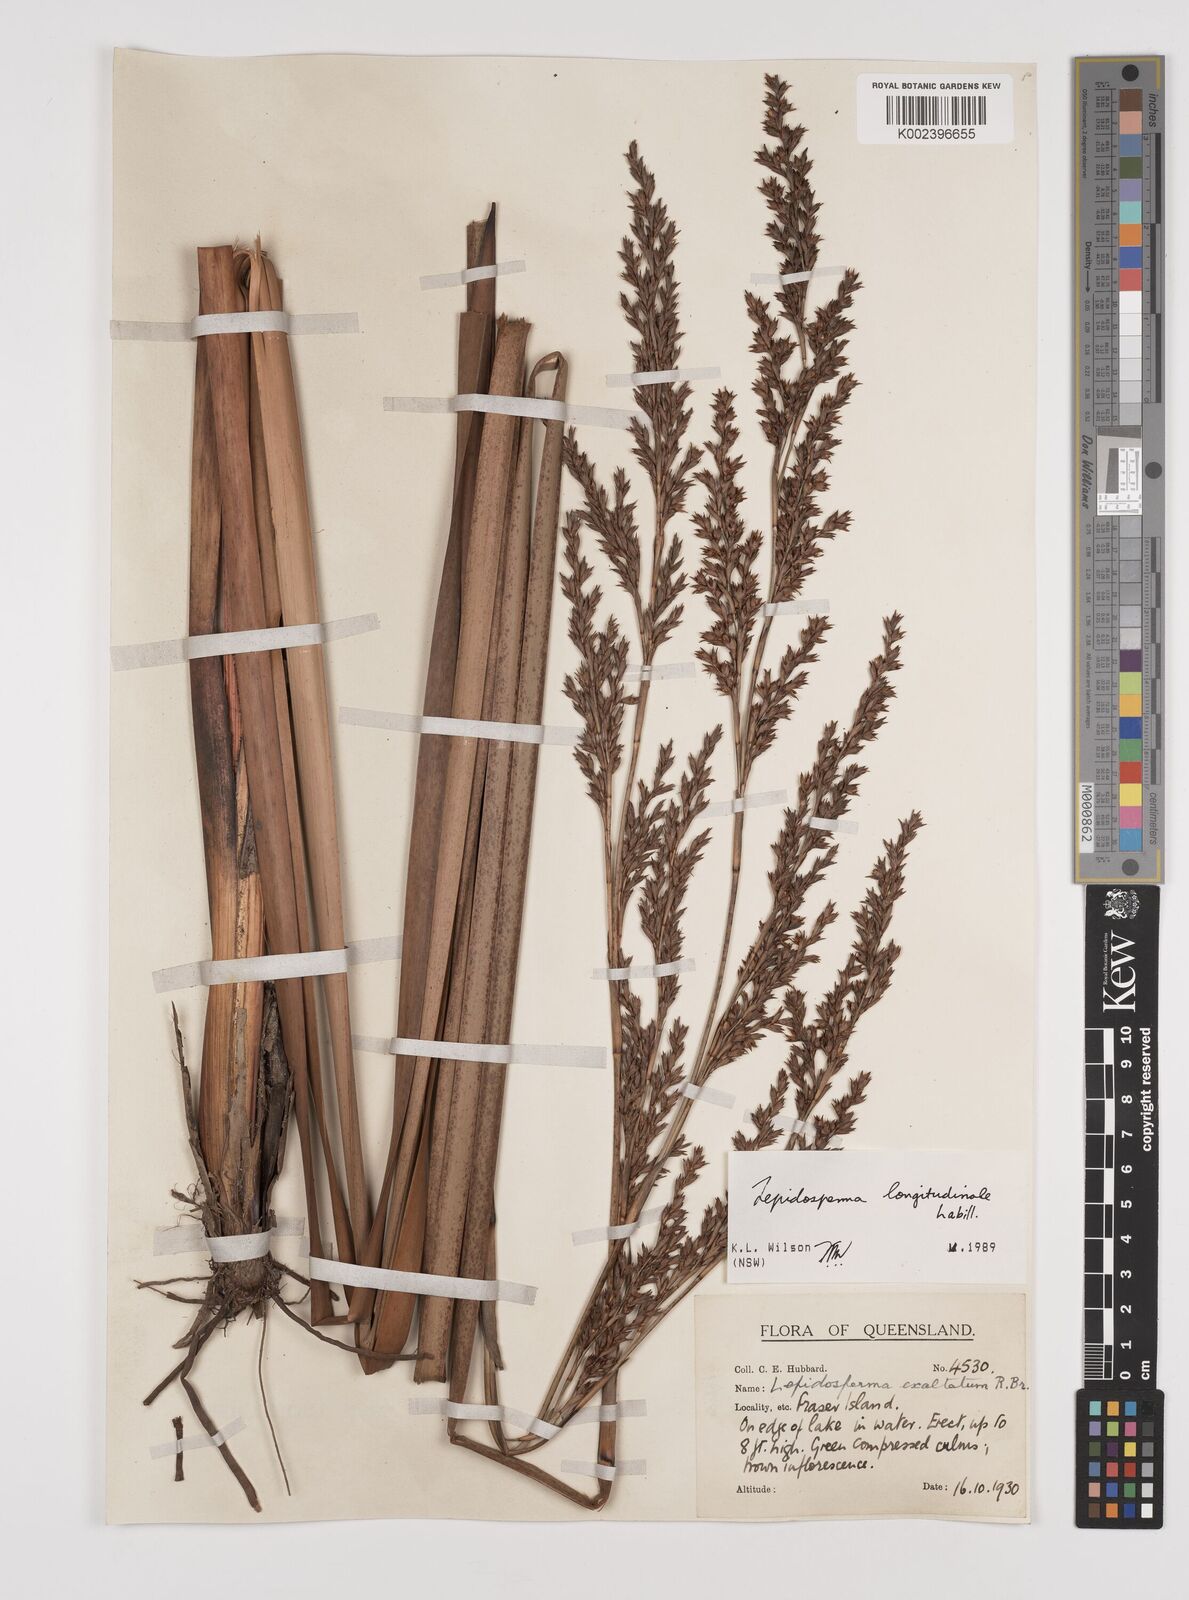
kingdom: Plantae
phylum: Tracheophyta
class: Liliopsida
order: Poales
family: Cyperaceae
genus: Lepidosperma
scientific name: Lepidosperma longitudinale
